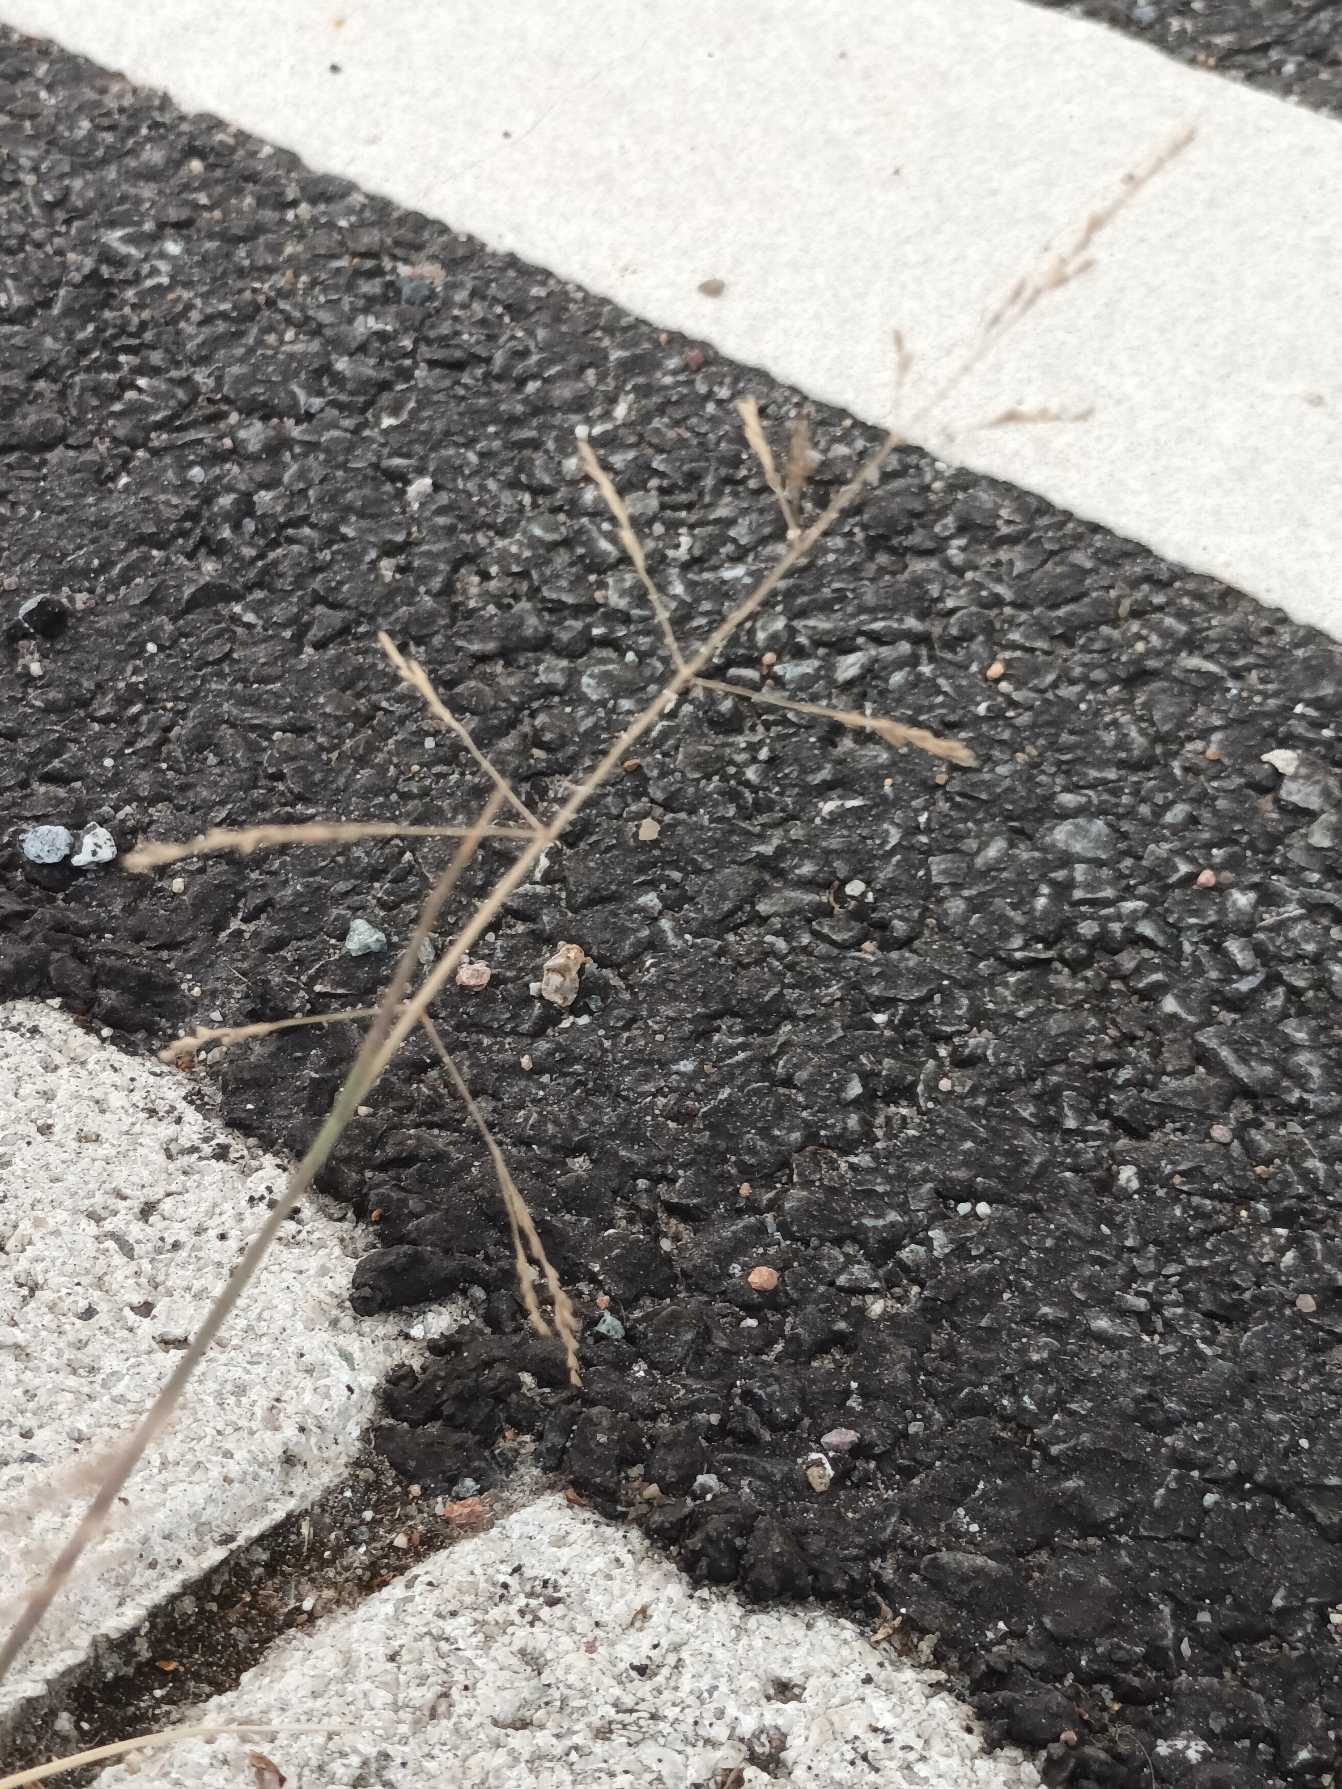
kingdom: Plantae
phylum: Tracheophyta
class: Liliopsida
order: Poales
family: Poaceae
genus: Puccinellia
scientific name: Puccinellia distans
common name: Udspærret annelgræs
